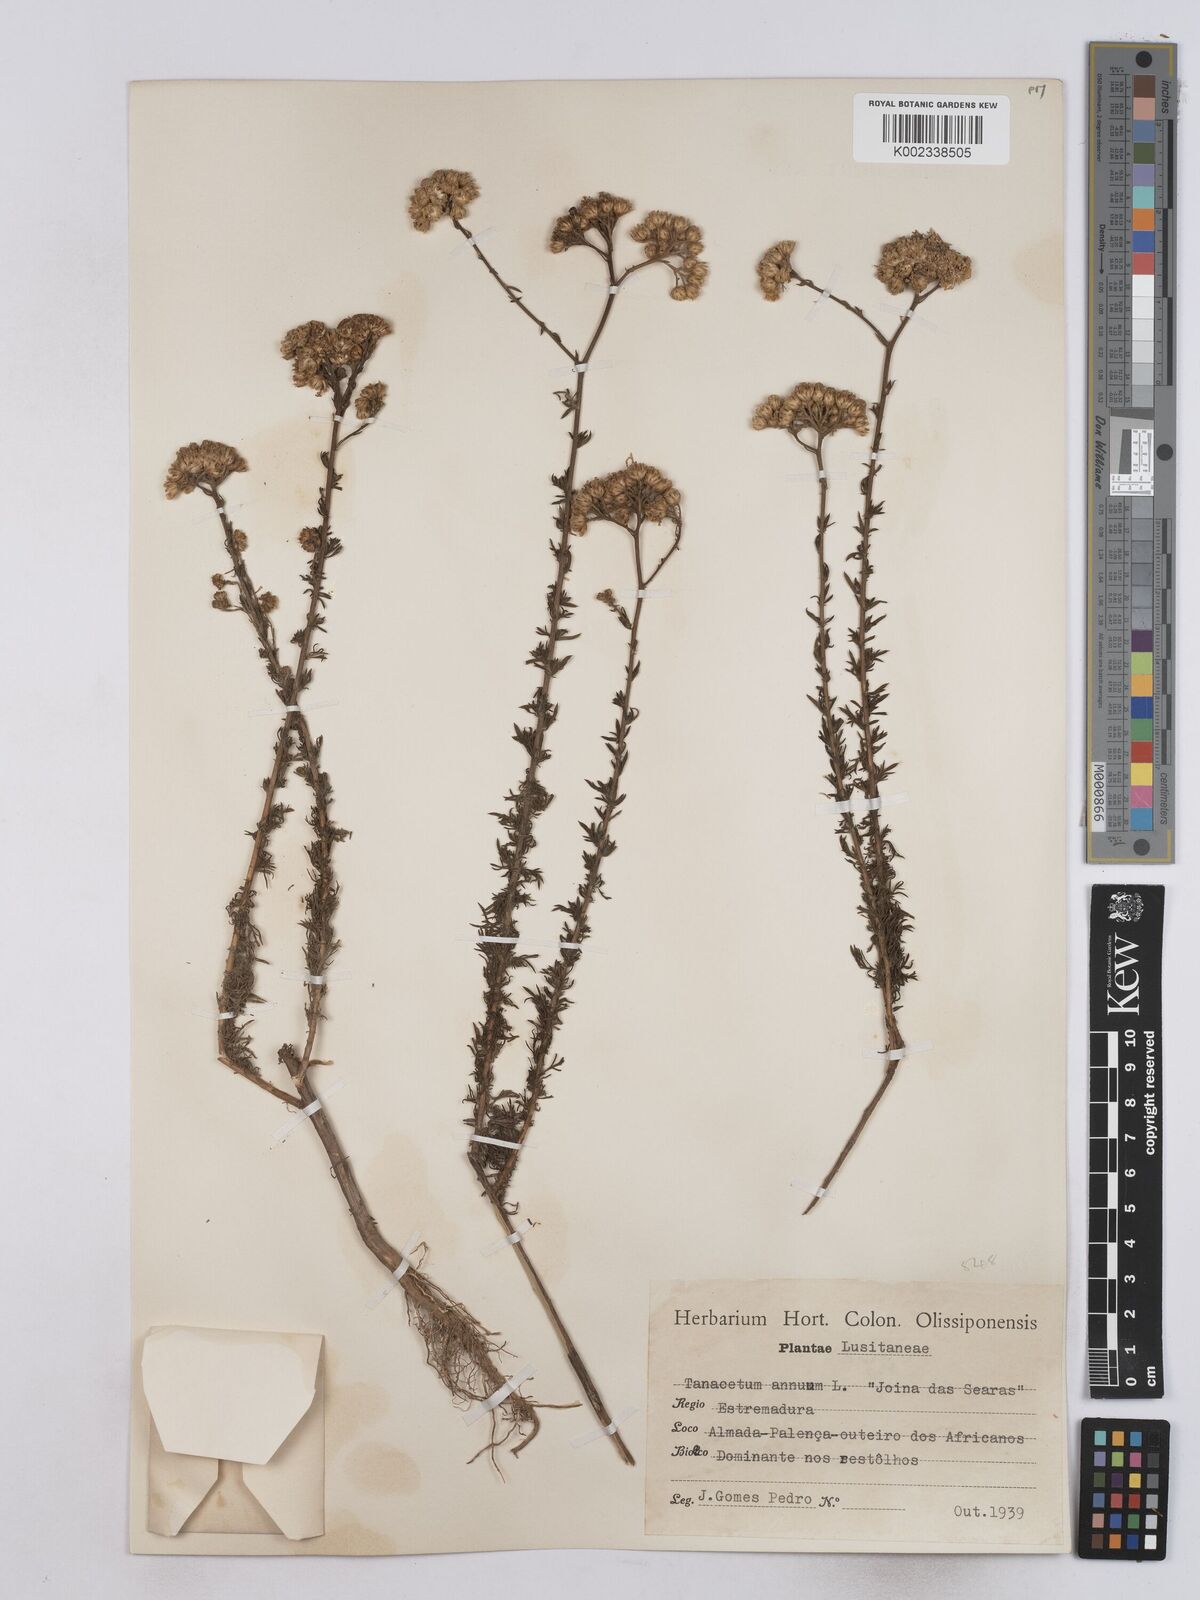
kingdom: Plantae
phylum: Tracheophyta
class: Magnoliopsida
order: Asterales
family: Asteraceae
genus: Vogtia
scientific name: Vogtia annua
